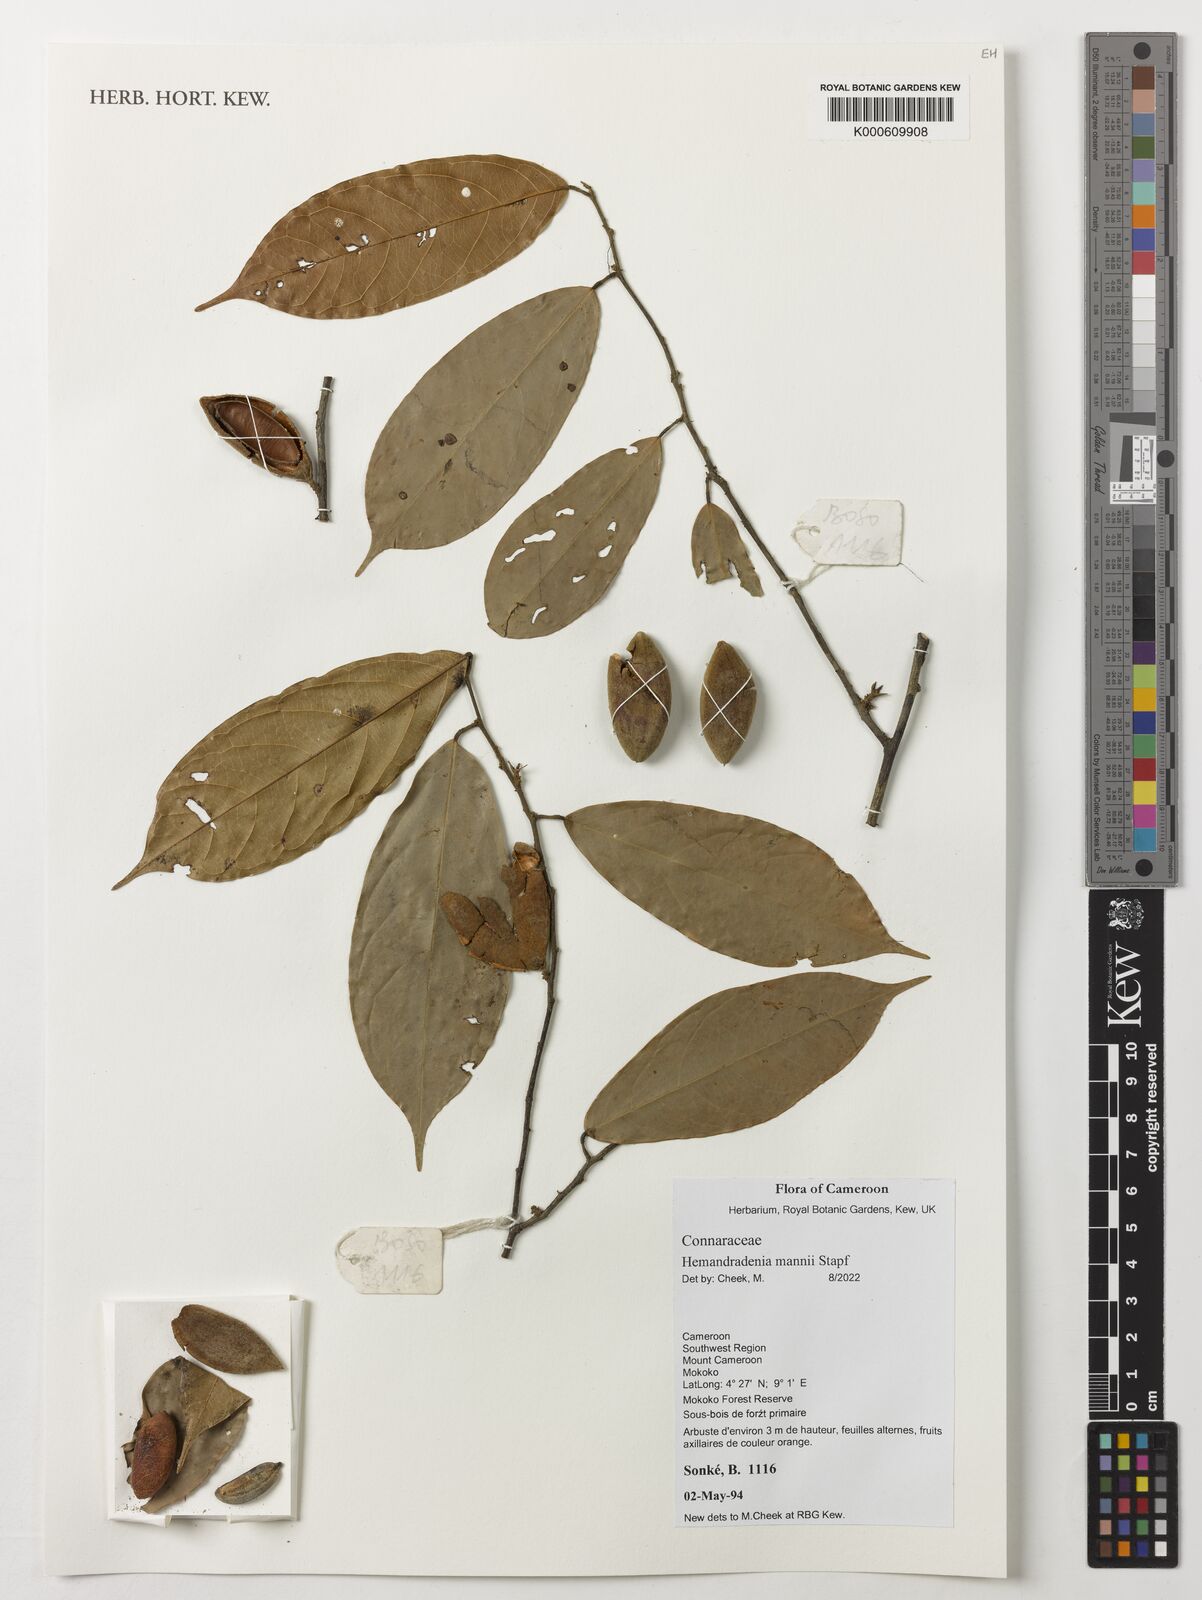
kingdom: Plantae
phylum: Tracheophyta
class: Magnoliopsida
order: Oxalidales
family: Connaraceae
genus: Hemandradenia
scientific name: Hemandradenia mannii
